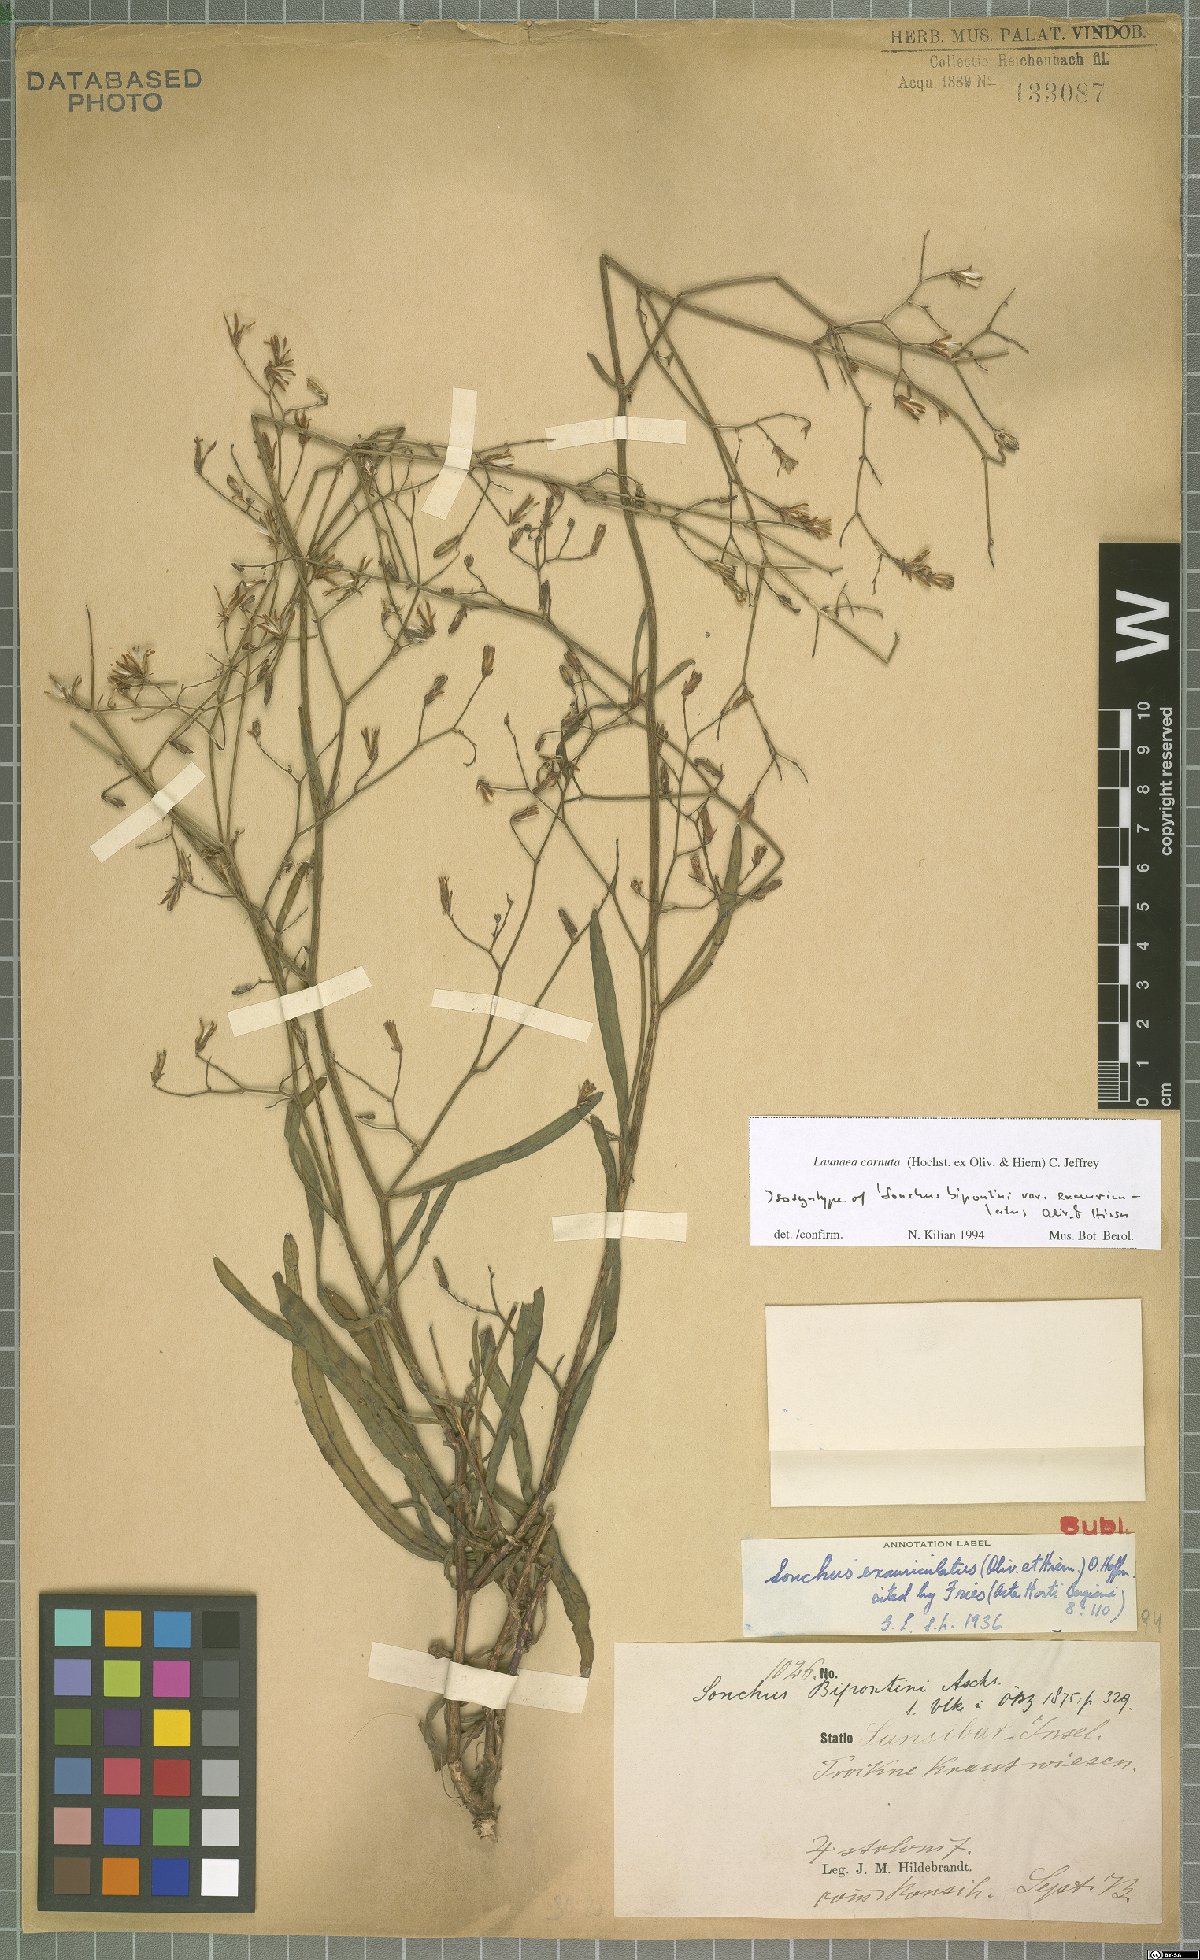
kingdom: Plantae
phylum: Tracheophyta
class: Magnoliopsida
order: Asterales
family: Asteraceae
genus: Launaea
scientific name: Launaea cornuta
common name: Bitter-lettuce
